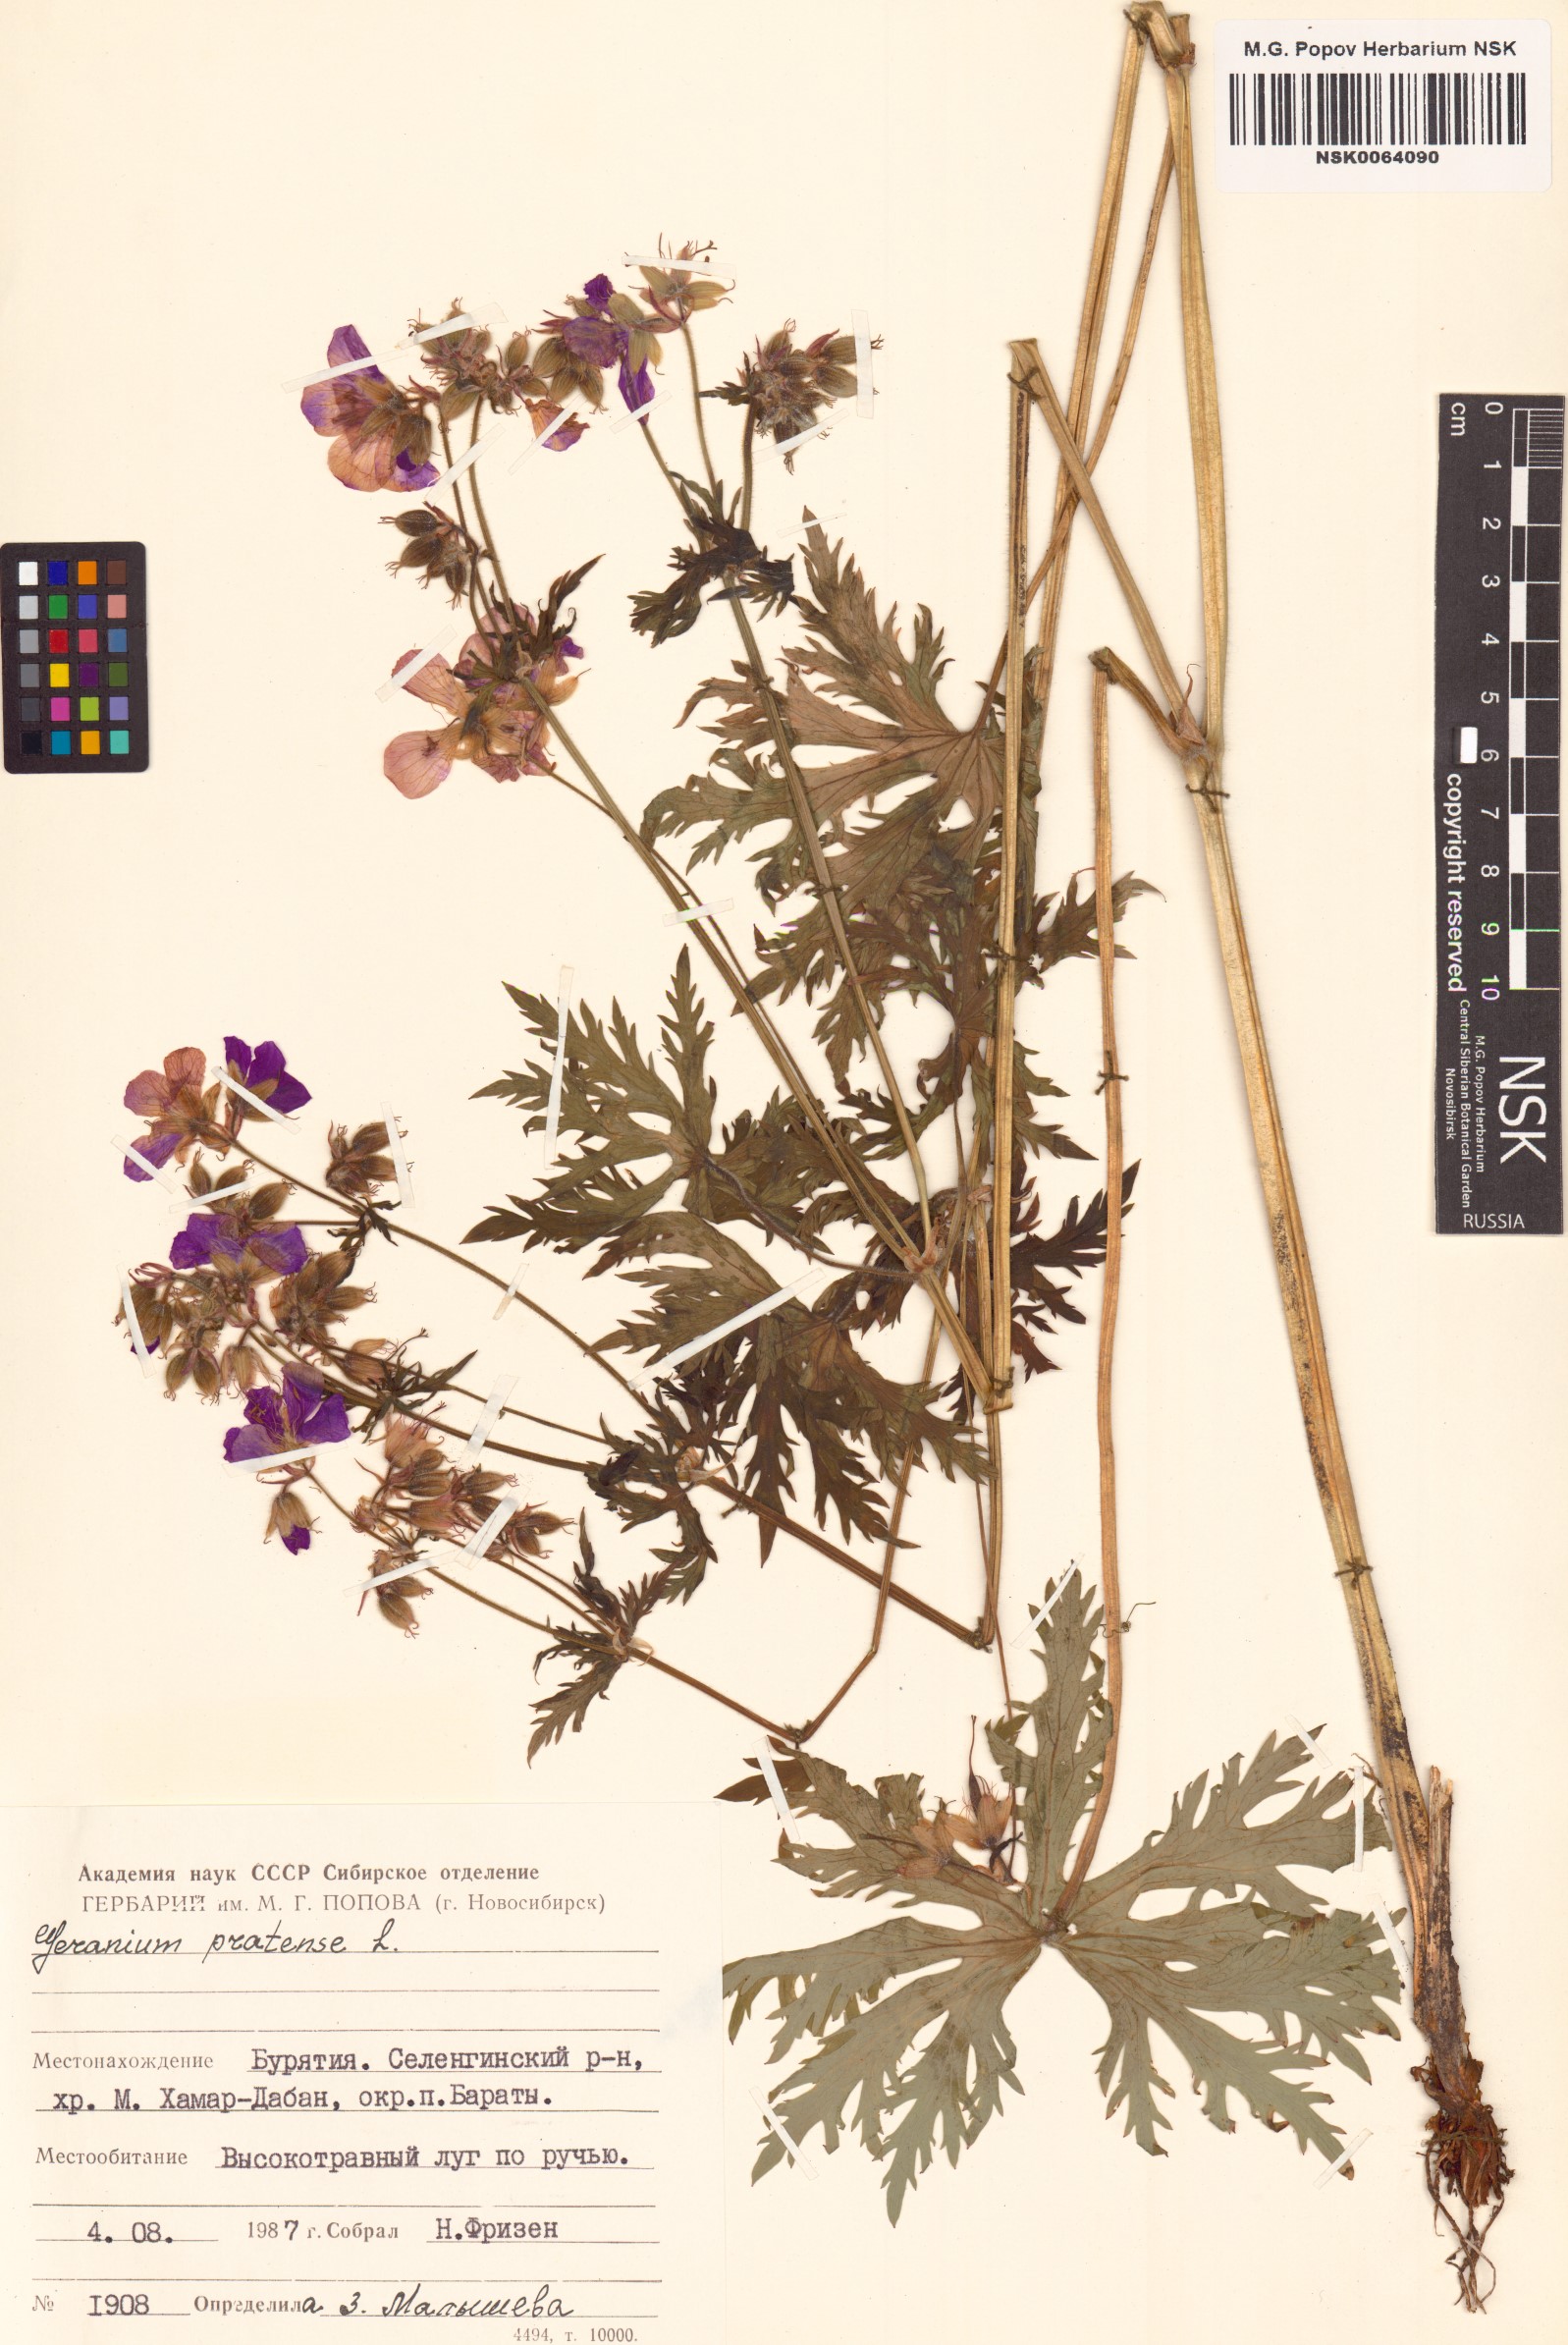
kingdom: Plantae
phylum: Tracheophyta
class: Magnoliopsida
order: Geraniales
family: Geraniaceae
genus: Geranium
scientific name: Geranium pratense
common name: Meadow crane's-bill
